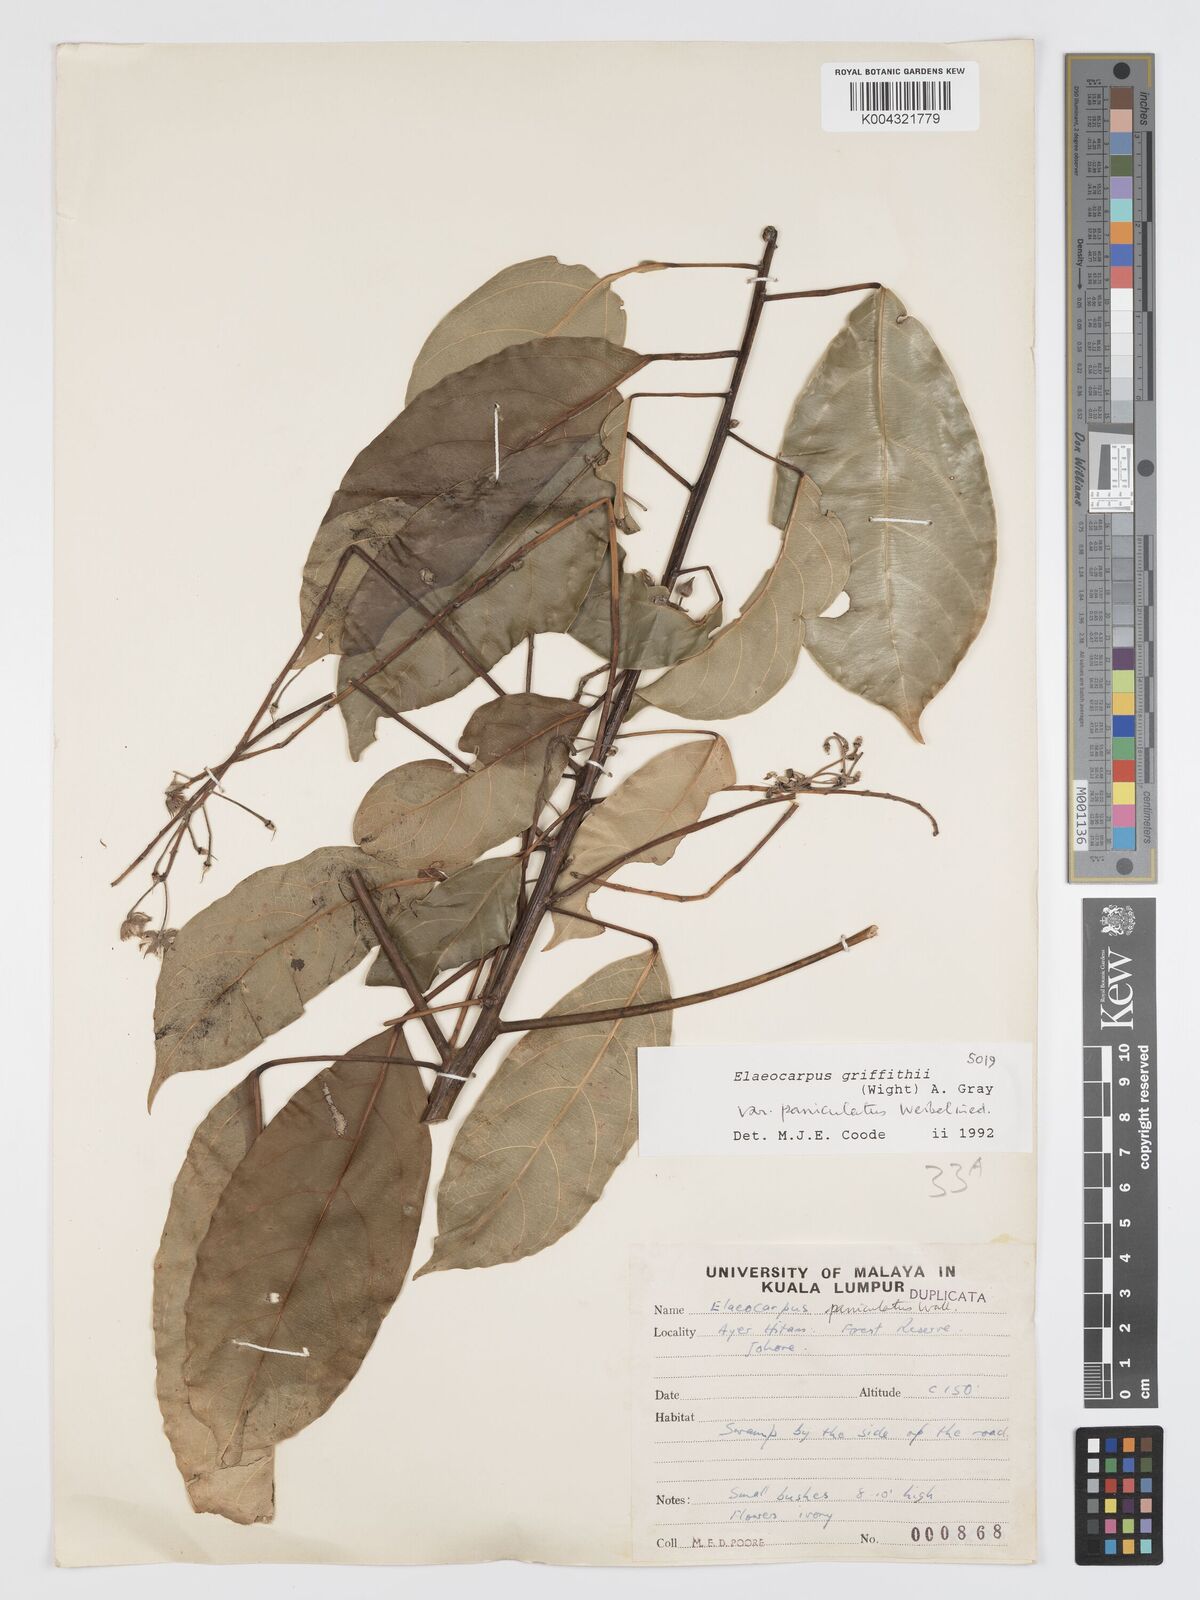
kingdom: Plantae
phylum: Tracheophyta
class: Magnoliopsida
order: Oxalidales
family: Elaeocarpaceae
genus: Elaeocarpus
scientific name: Elaeocarpus griffithii
